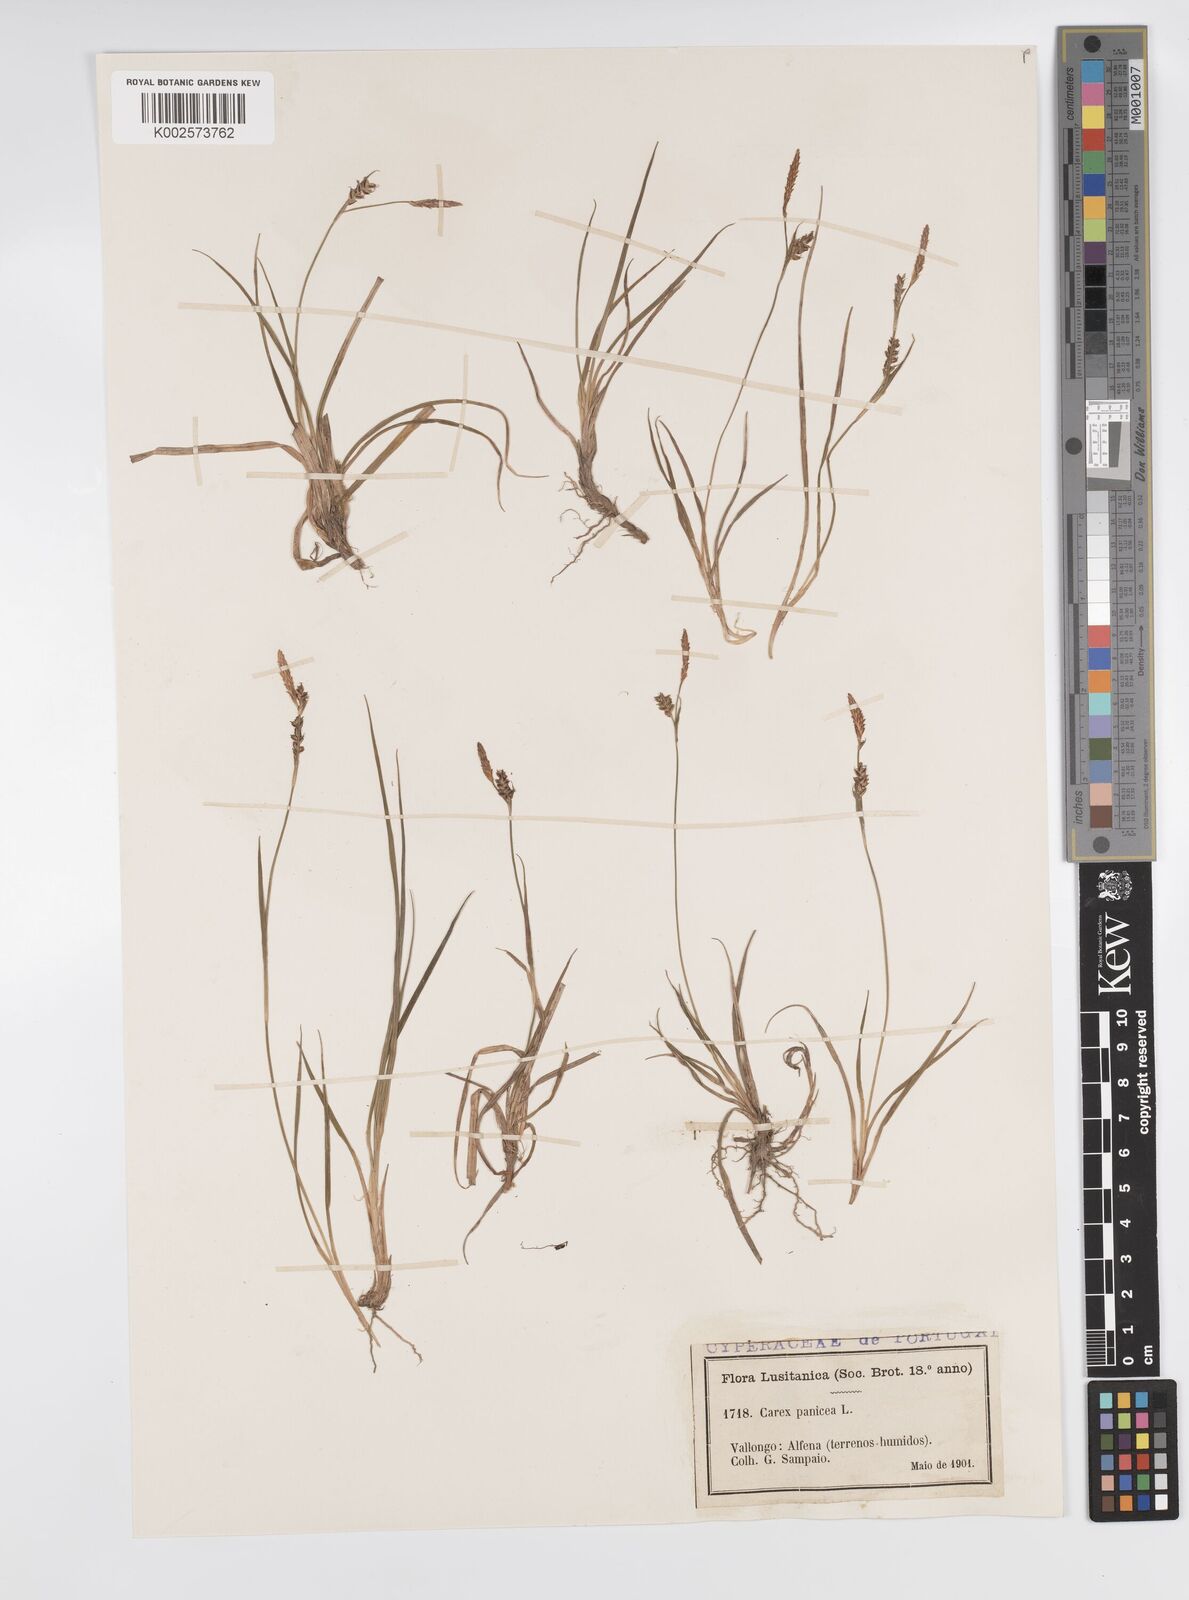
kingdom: Plantae
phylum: Tracheophyta
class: Liliopsida
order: Poales
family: Cyperaceae
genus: Carex
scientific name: Carex panicea
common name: Carnation sedge
